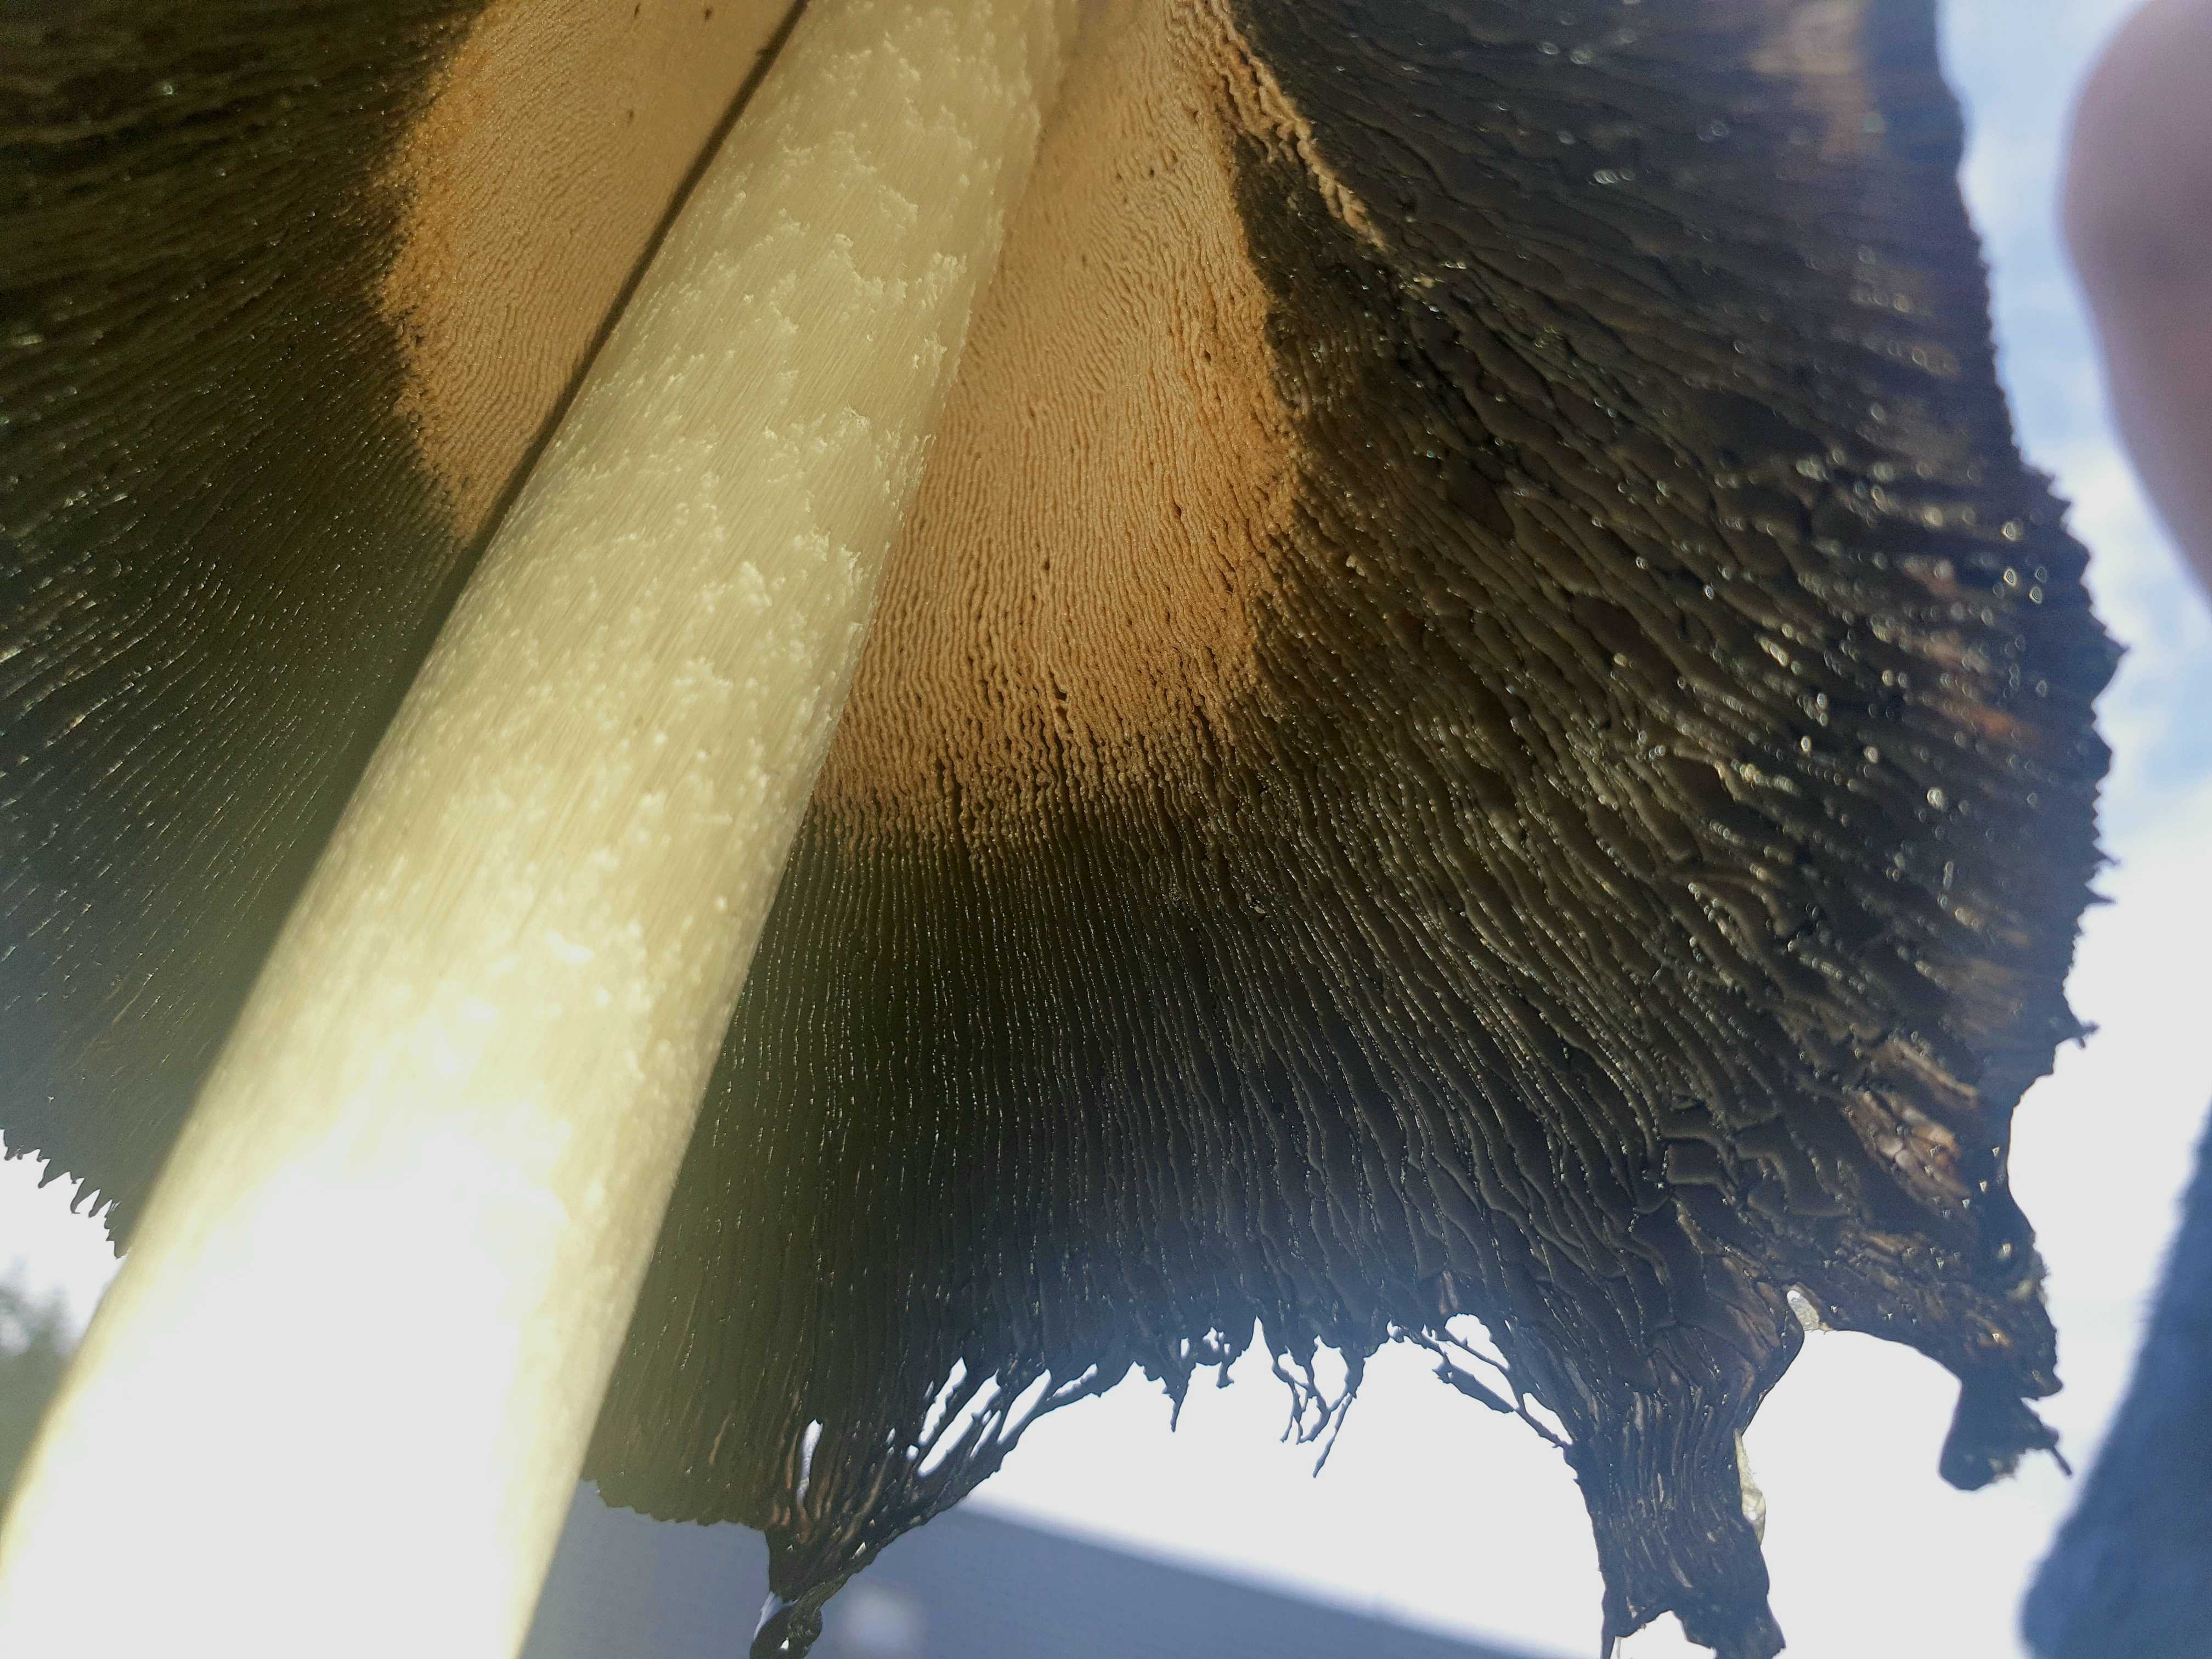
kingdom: Fungi
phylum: Basidiomycota
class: Agaricomycetes
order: Agaricales
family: Agaricaceae
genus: Coprinus
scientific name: Coprinus comatus
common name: stor parykhat
